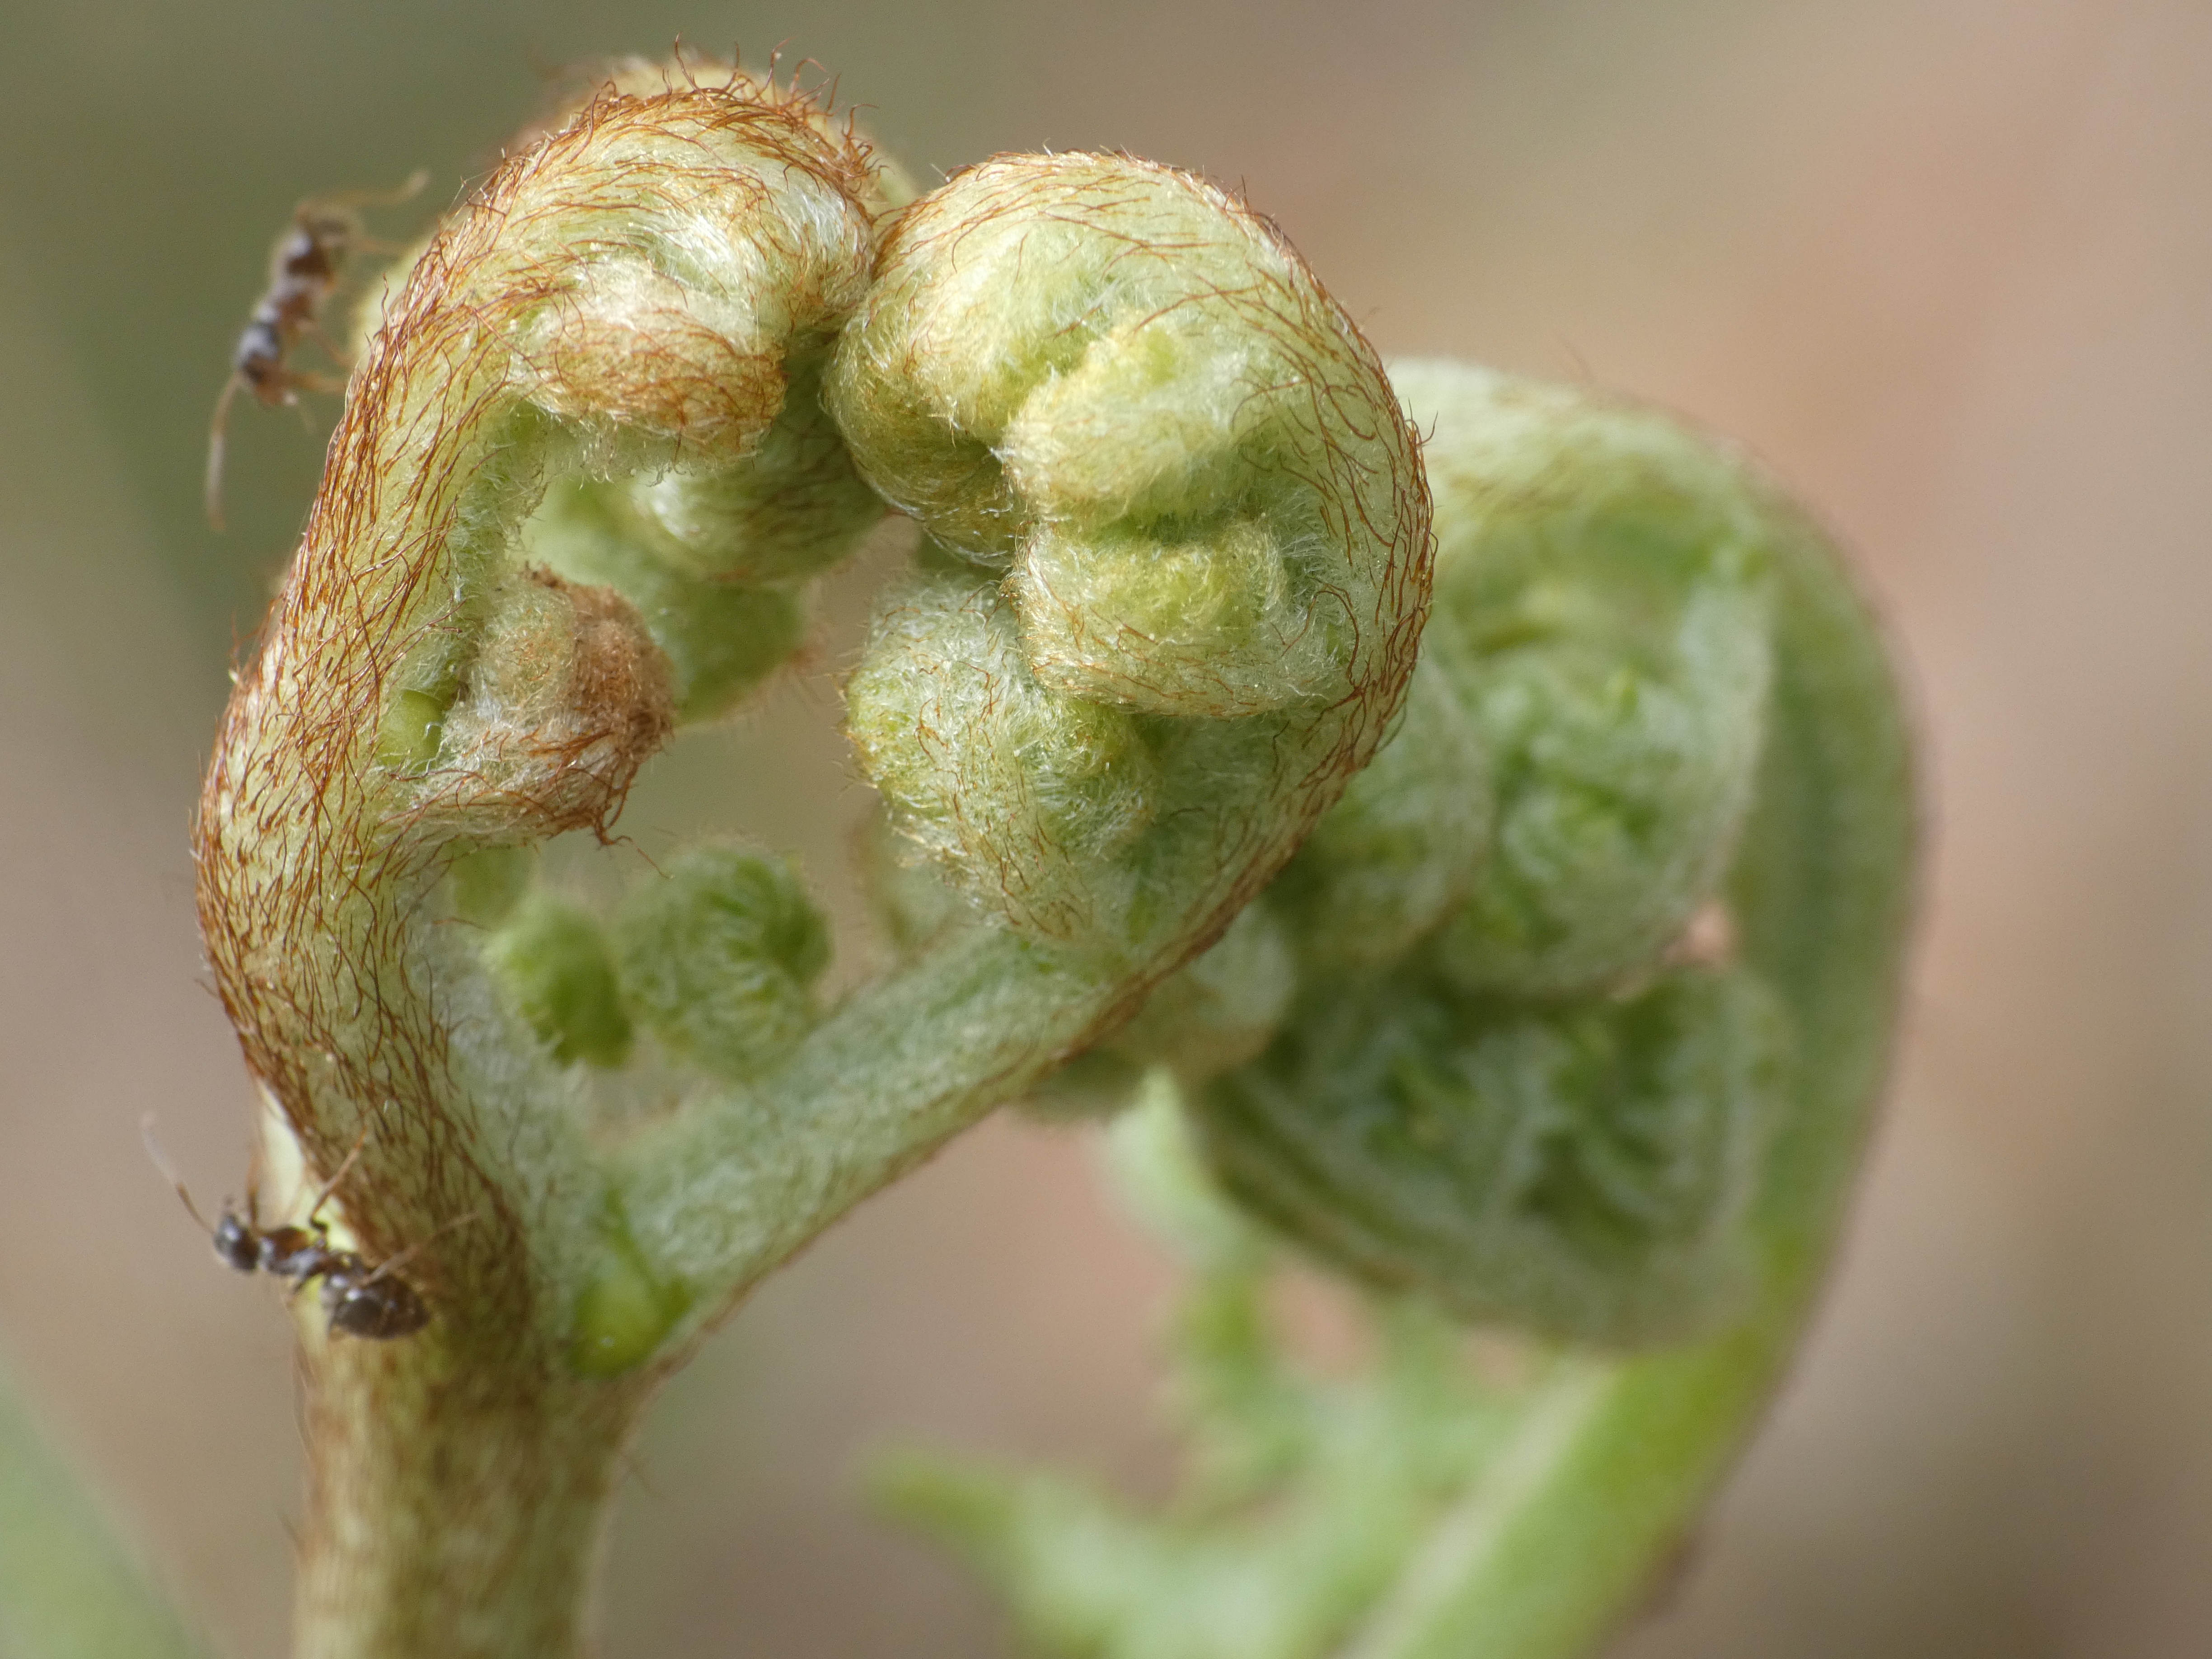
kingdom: Plantae
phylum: Tracheophyta
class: Polypodiopsida
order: Polypodiales
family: Dennstaedtiaceae
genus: Pteridium
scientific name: Pteridium aquilinum
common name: Ørnebregne
